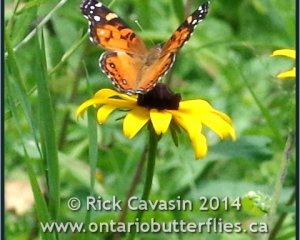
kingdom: Animalia
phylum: Arthropoda
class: Insecta
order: Lepidoptera
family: Nymphalidae
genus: Vanessa
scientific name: Vanessa virginiensis
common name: American Lady
